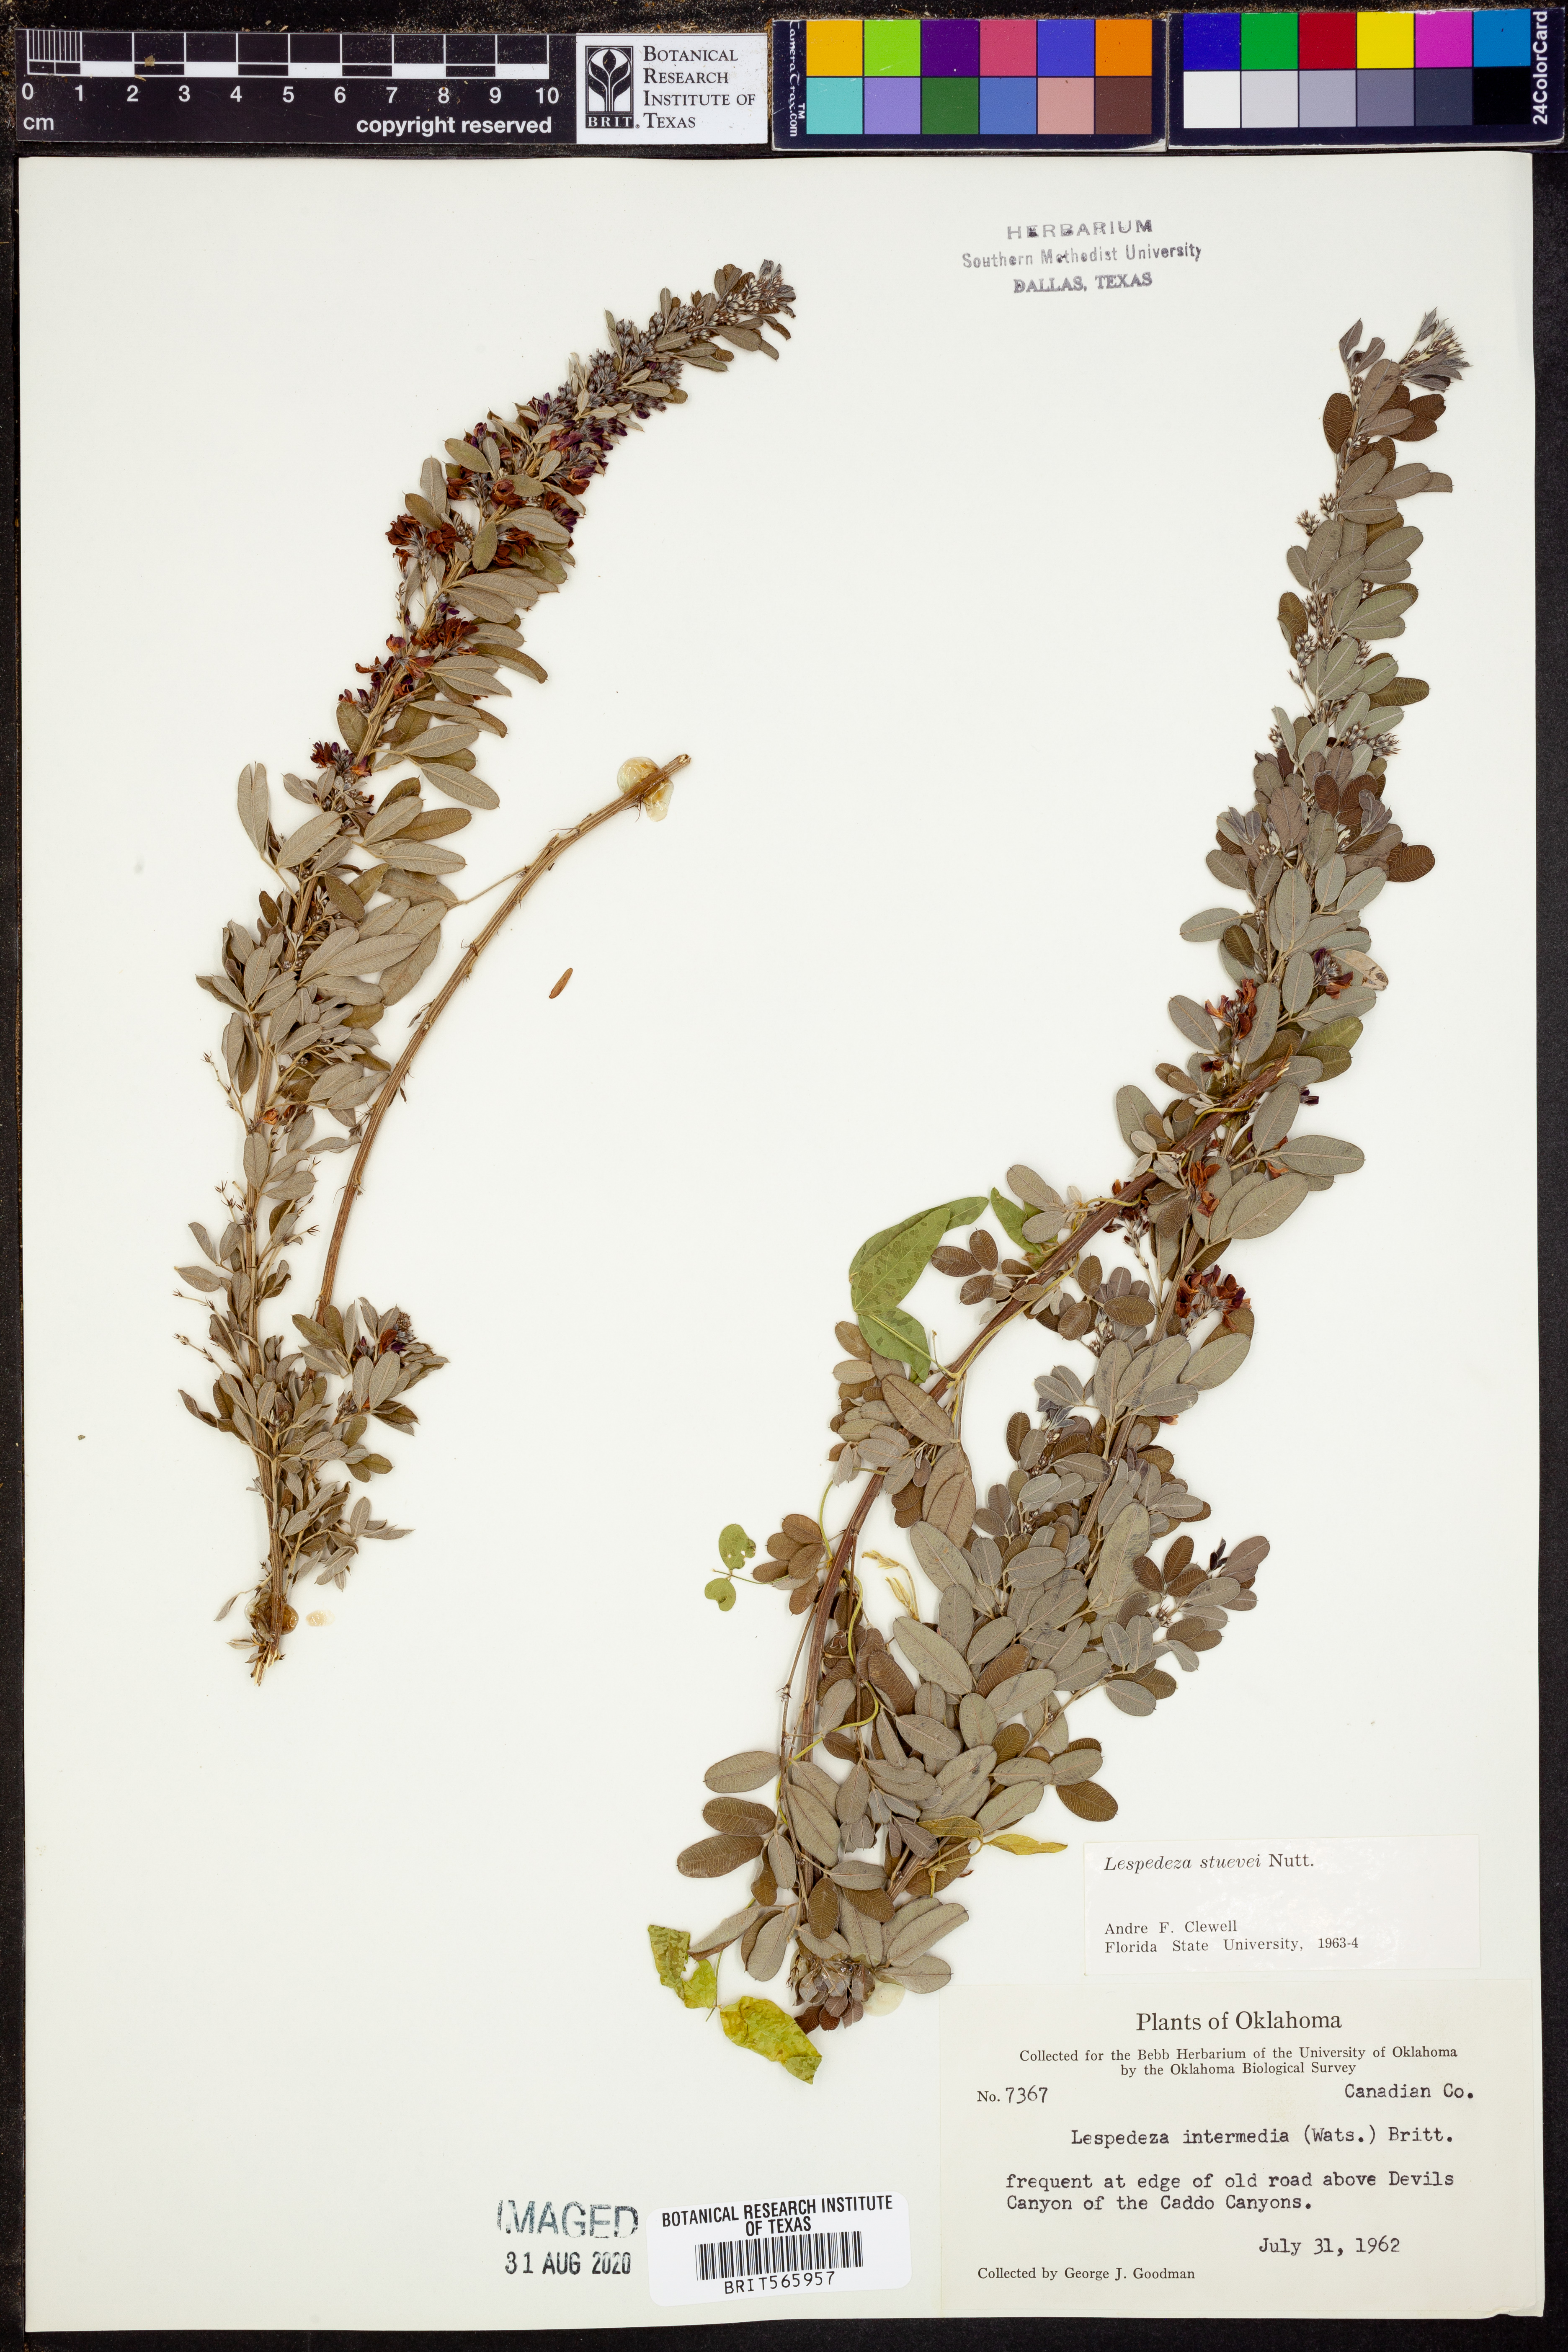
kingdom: Plantae
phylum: Tracheophyta
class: Magnoliopsida
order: Fabales
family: Fabaceae
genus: Lespedeza
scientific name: Lespedeza stuevei
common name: Tall bush-clover
